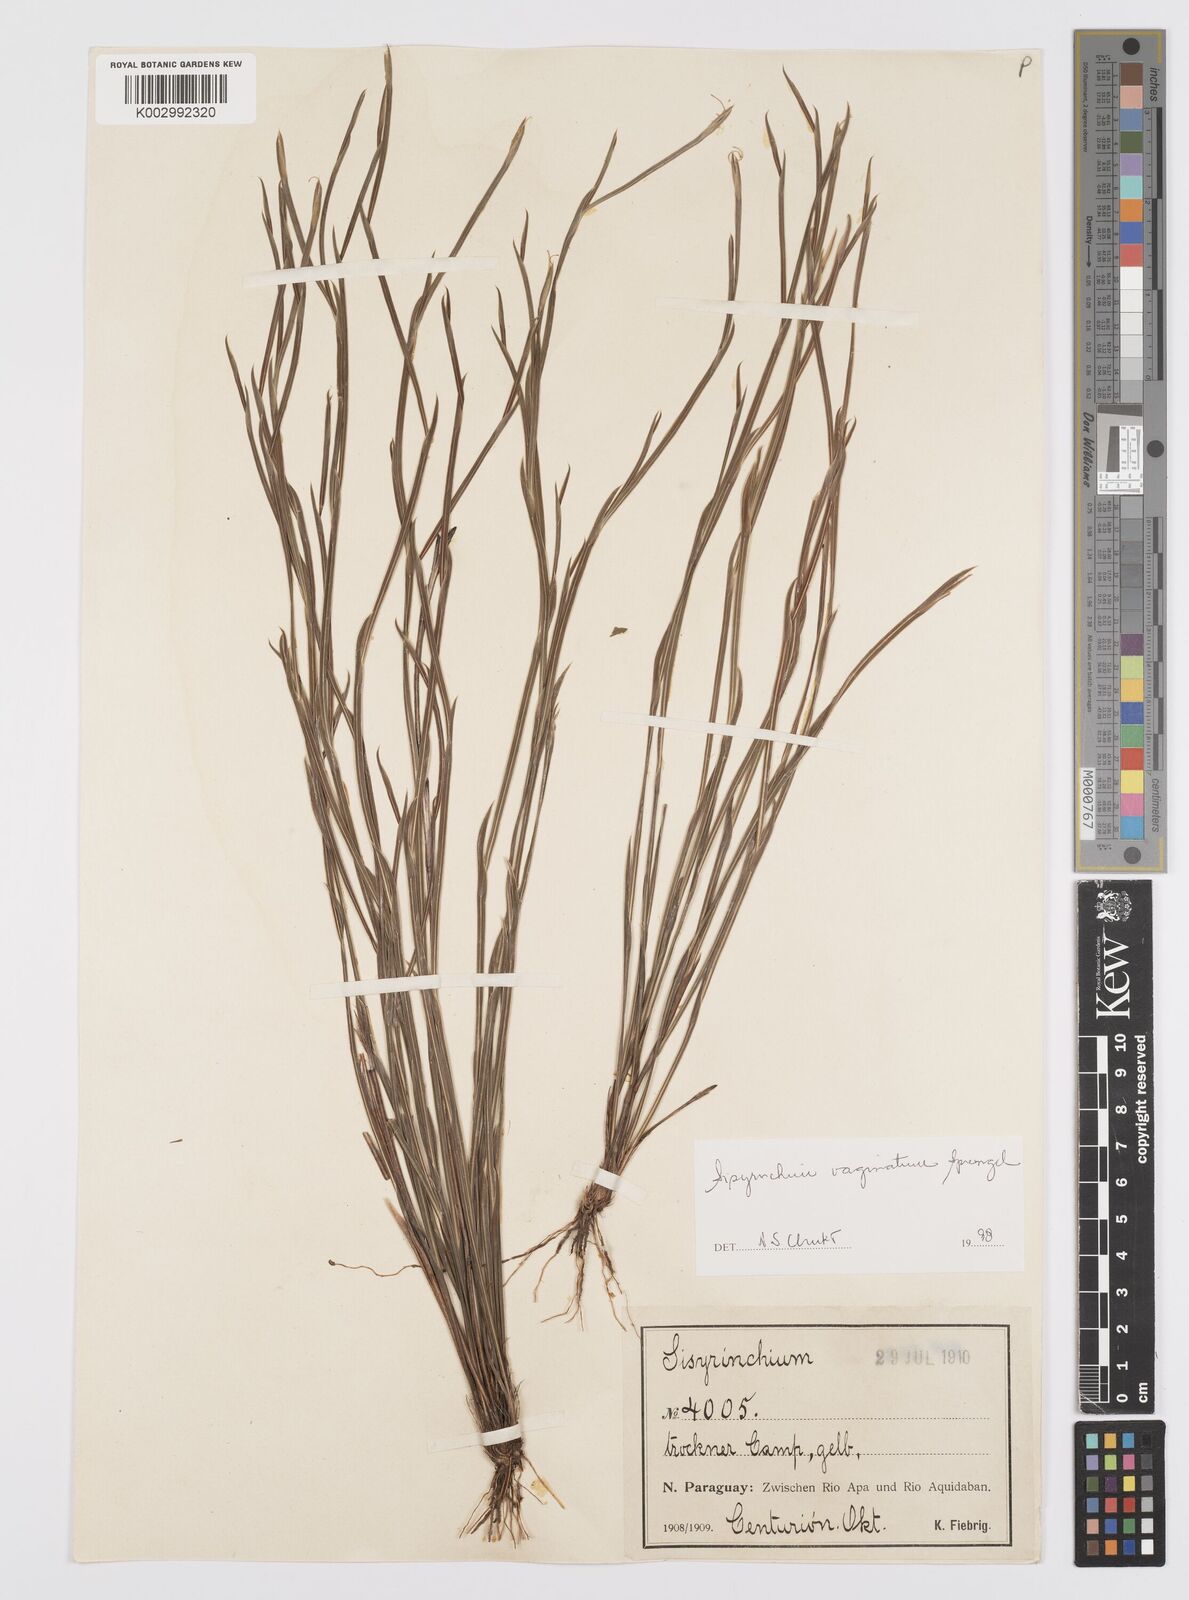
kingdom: Plantae
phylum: Tracheophyta
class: Liliopsida
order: Asparagales
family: Iridaceae
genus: Sisyrinchium
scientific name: Sisyrinchium vaginatum
